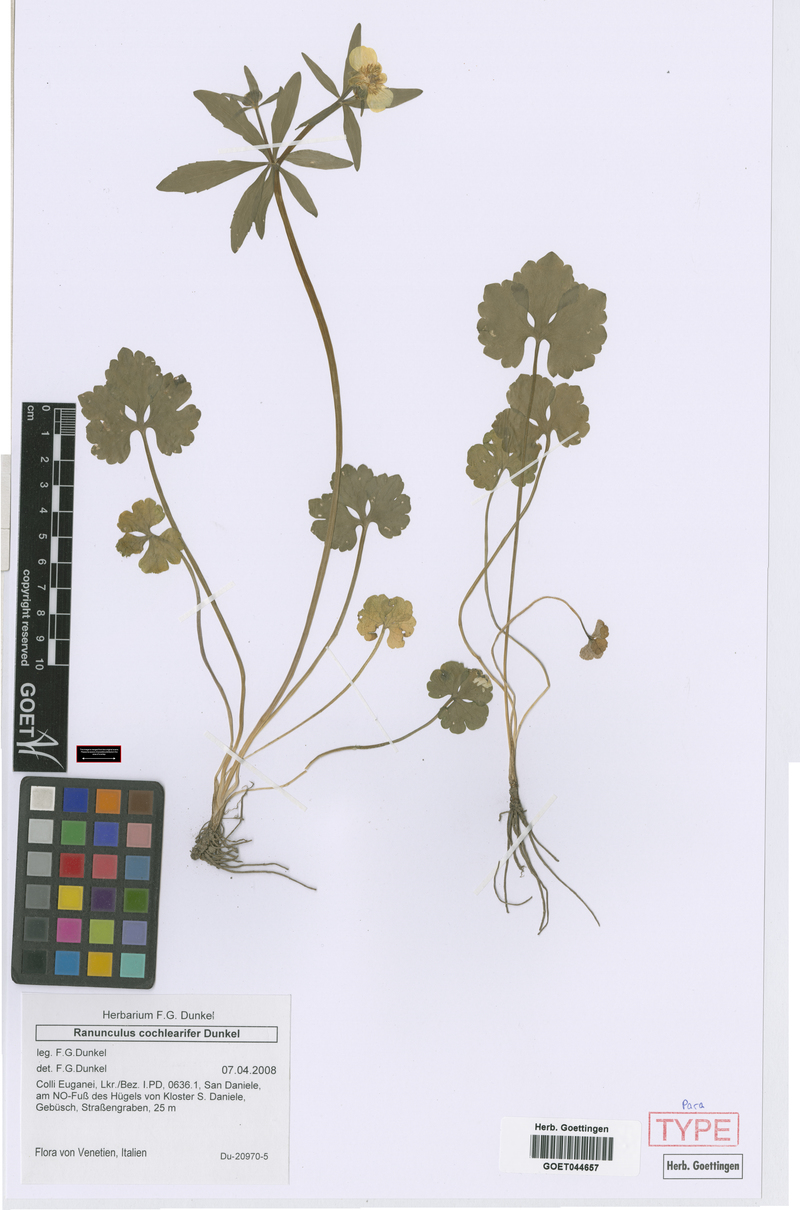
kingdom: Plantae
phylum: Tracheophyta
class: Magnoliopsida
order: Ranunculales
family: Ranunculaceae
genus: Ranunculus
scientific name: Ranunculus cochlearifer
